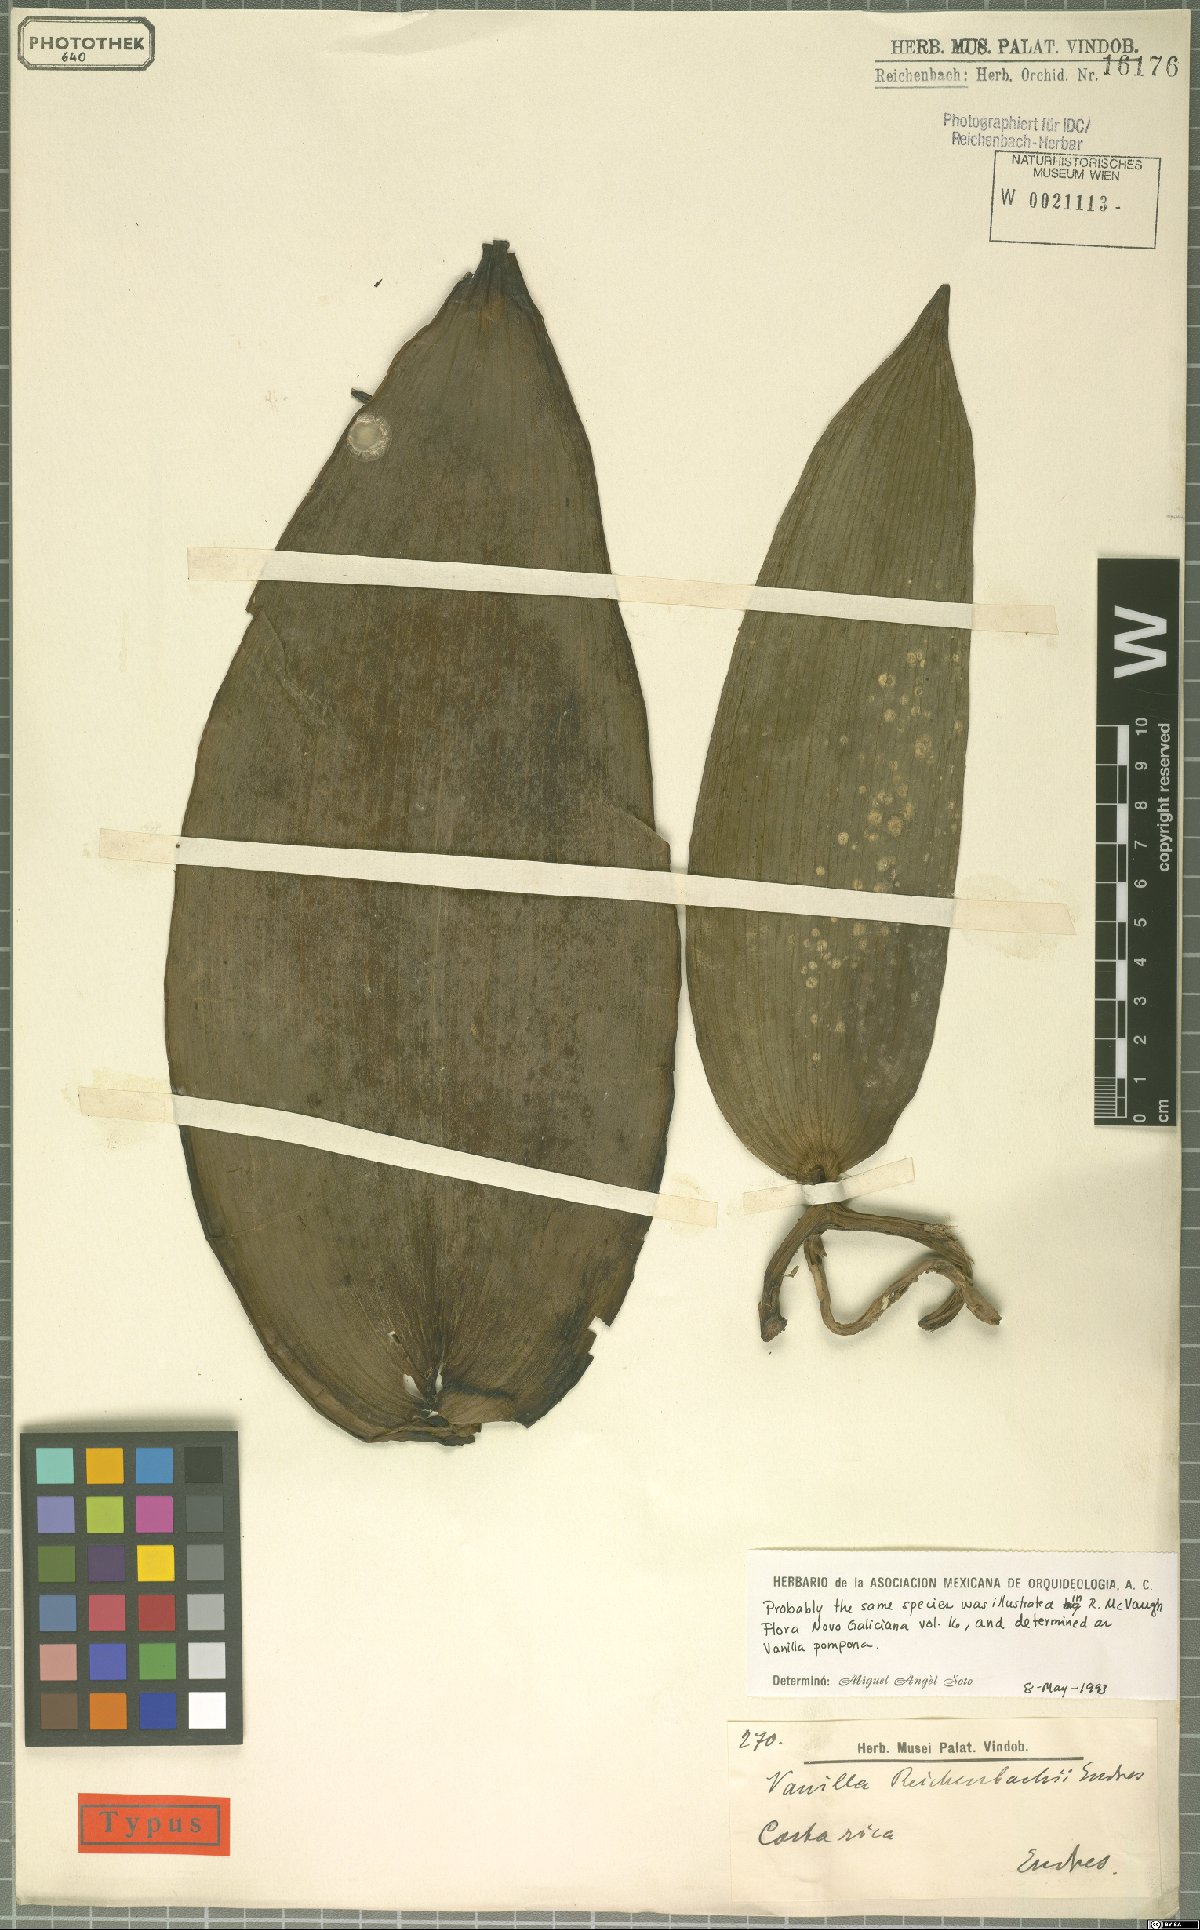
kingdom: Plantae
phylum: Tracheophyta
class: Liliopsida
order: Asparagales
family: Orchidaceae
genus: Vanilla
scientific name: Vanilla pompona
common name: West indian vanilla
